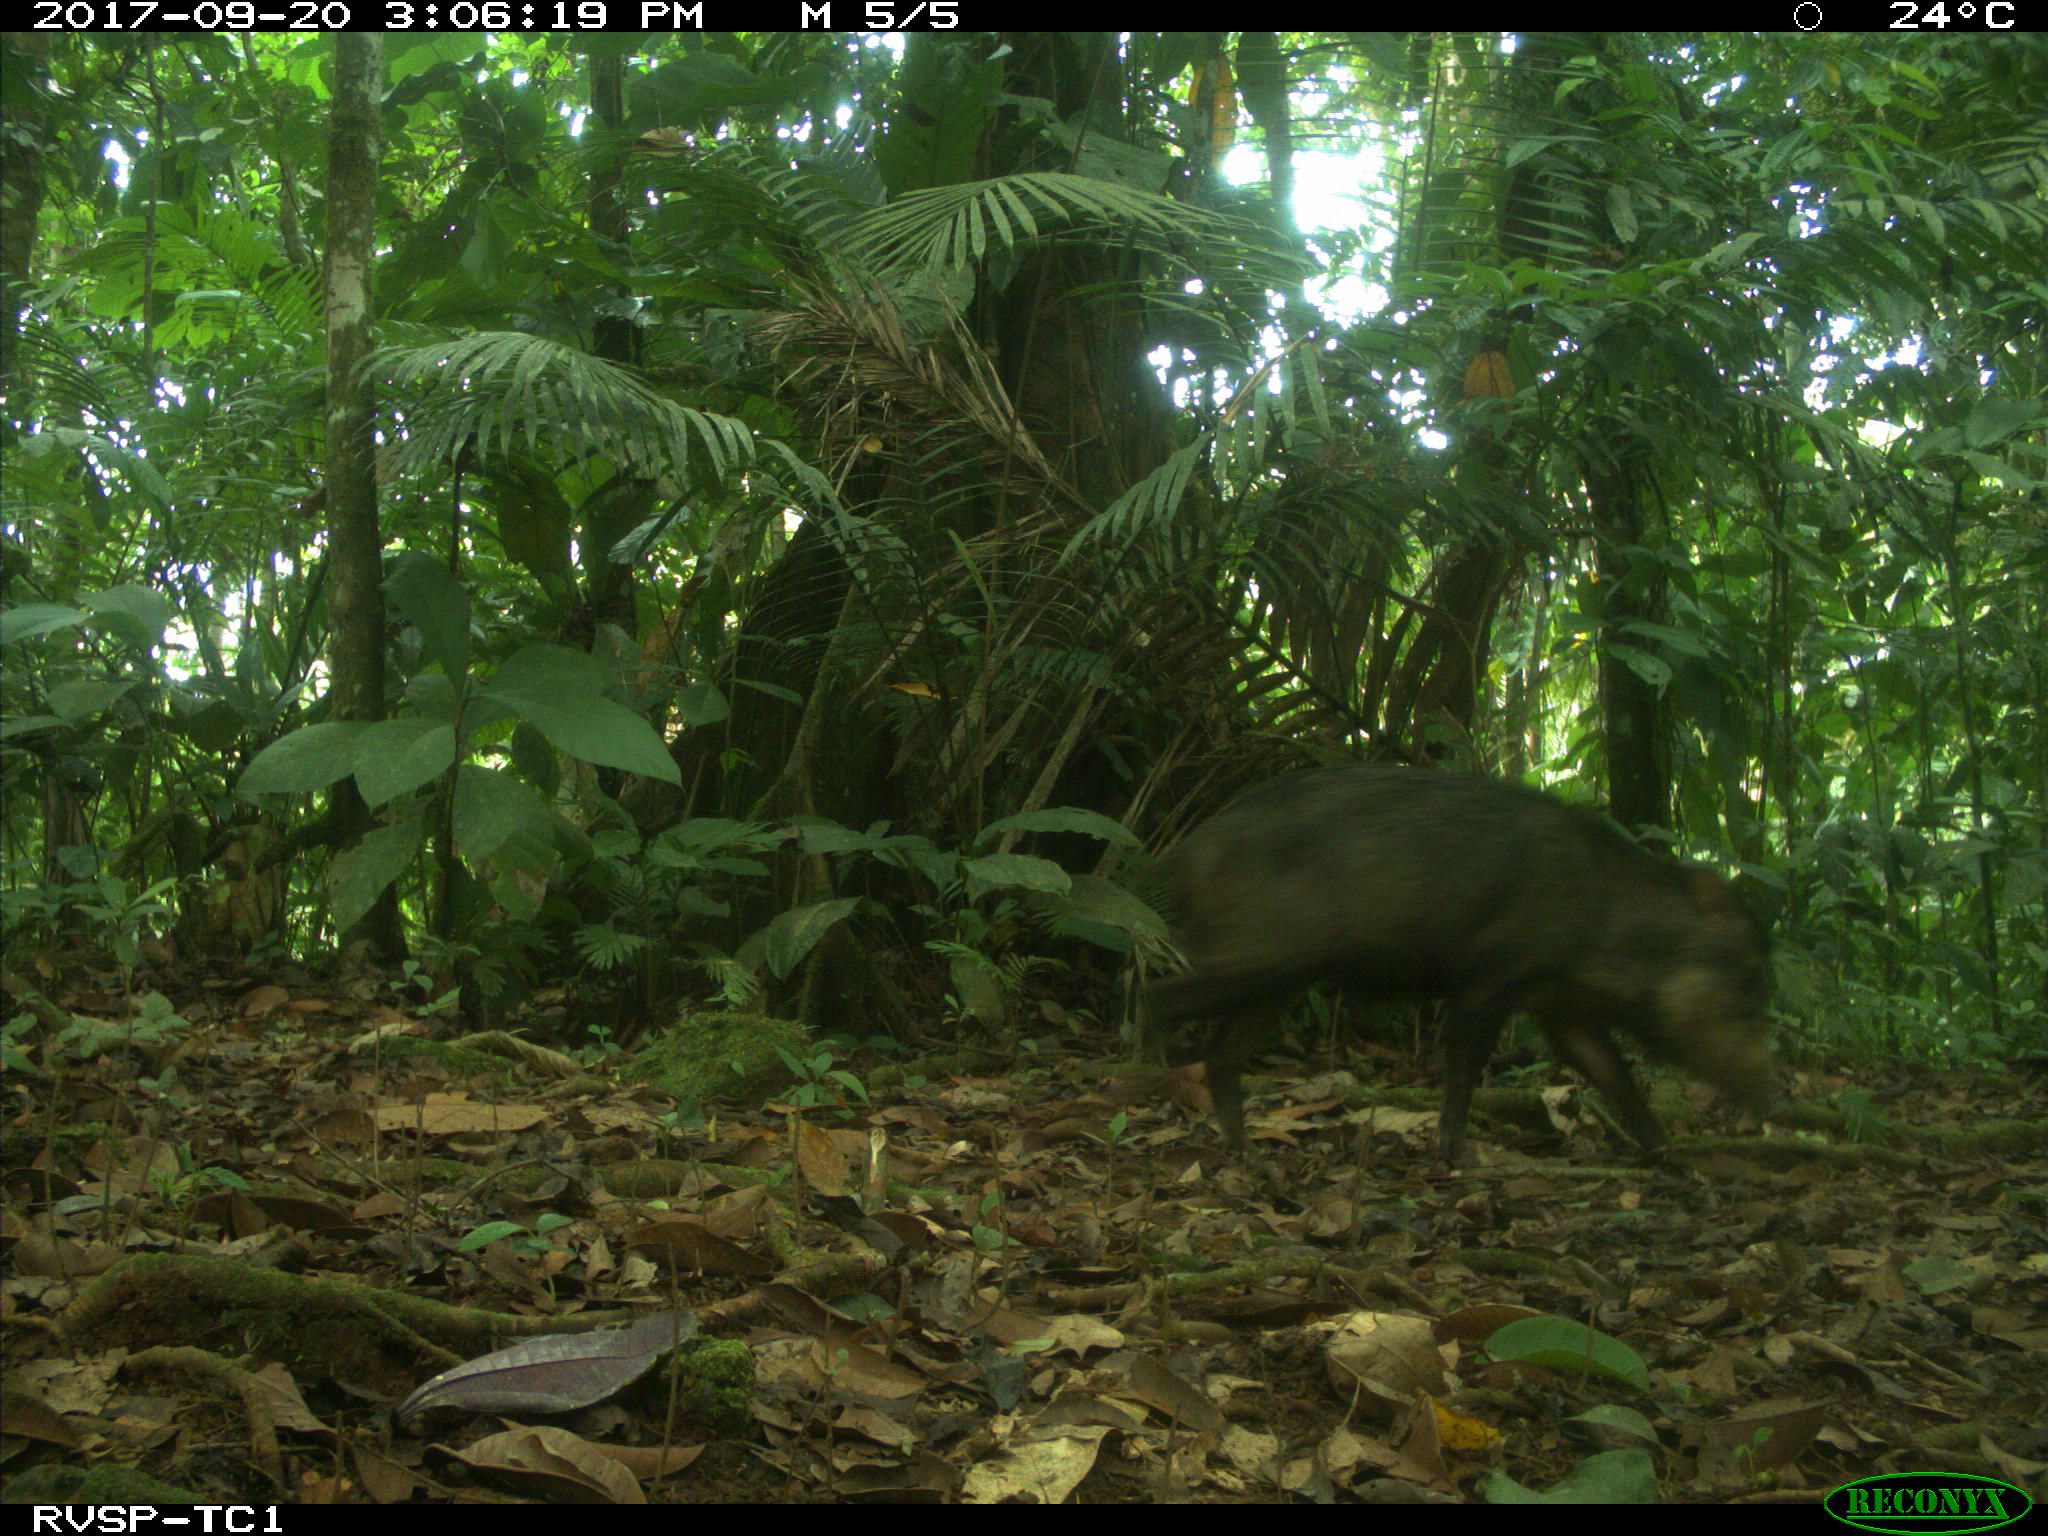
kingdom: Animalia
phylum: Chordata
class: Mammalia
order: Artiodactyla
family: Tayassuidae
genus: Tayassu
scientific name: Tayassu pecari
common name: White-lipped peccary
